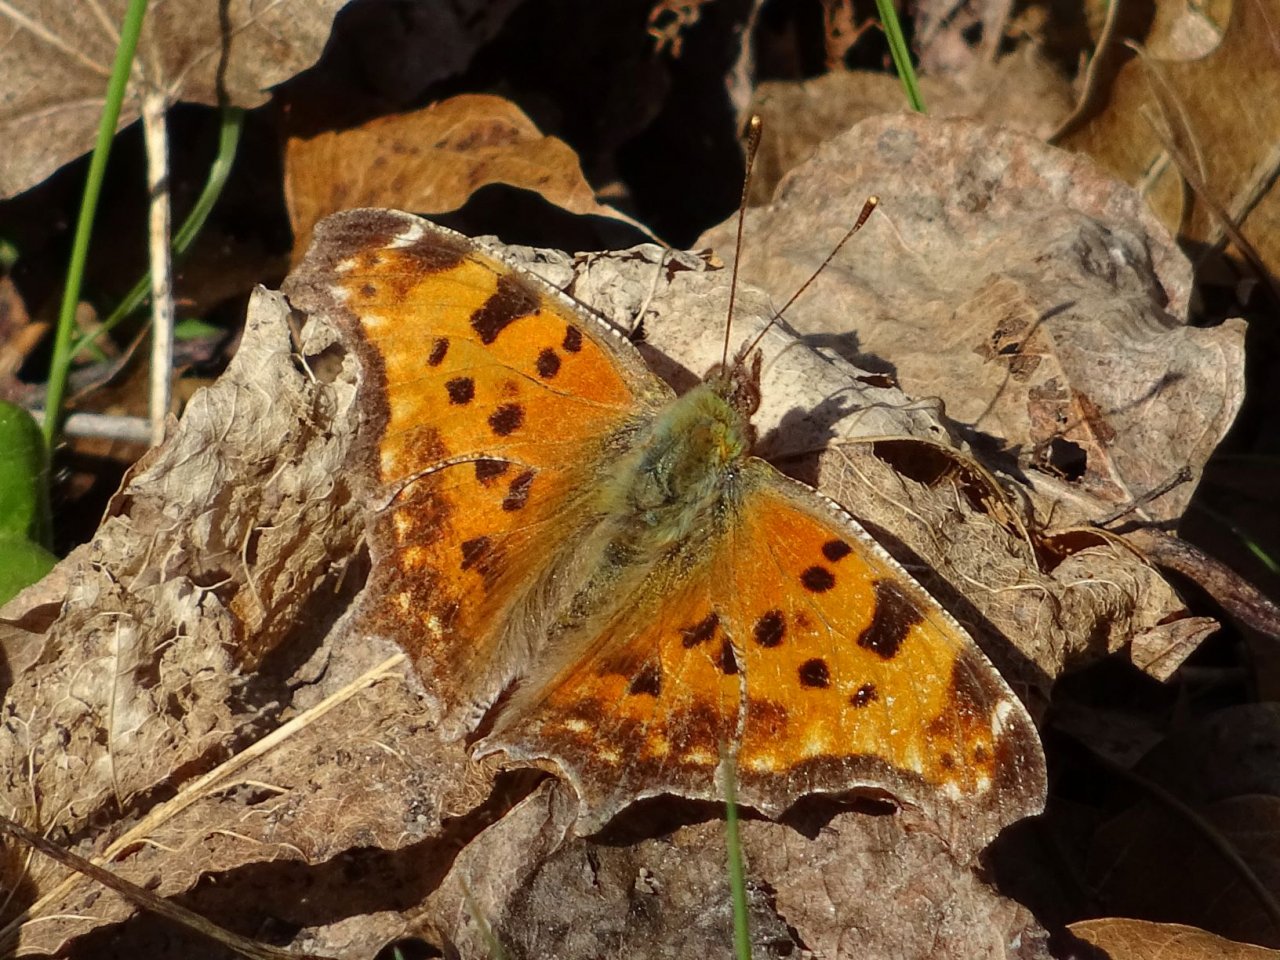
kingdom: Animalia
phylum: Arthropoda
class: Insecta
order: Lepidoptera
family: Nymphalidae
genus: Polygonia
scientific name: Polygonia comma
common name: Eastern Comma
